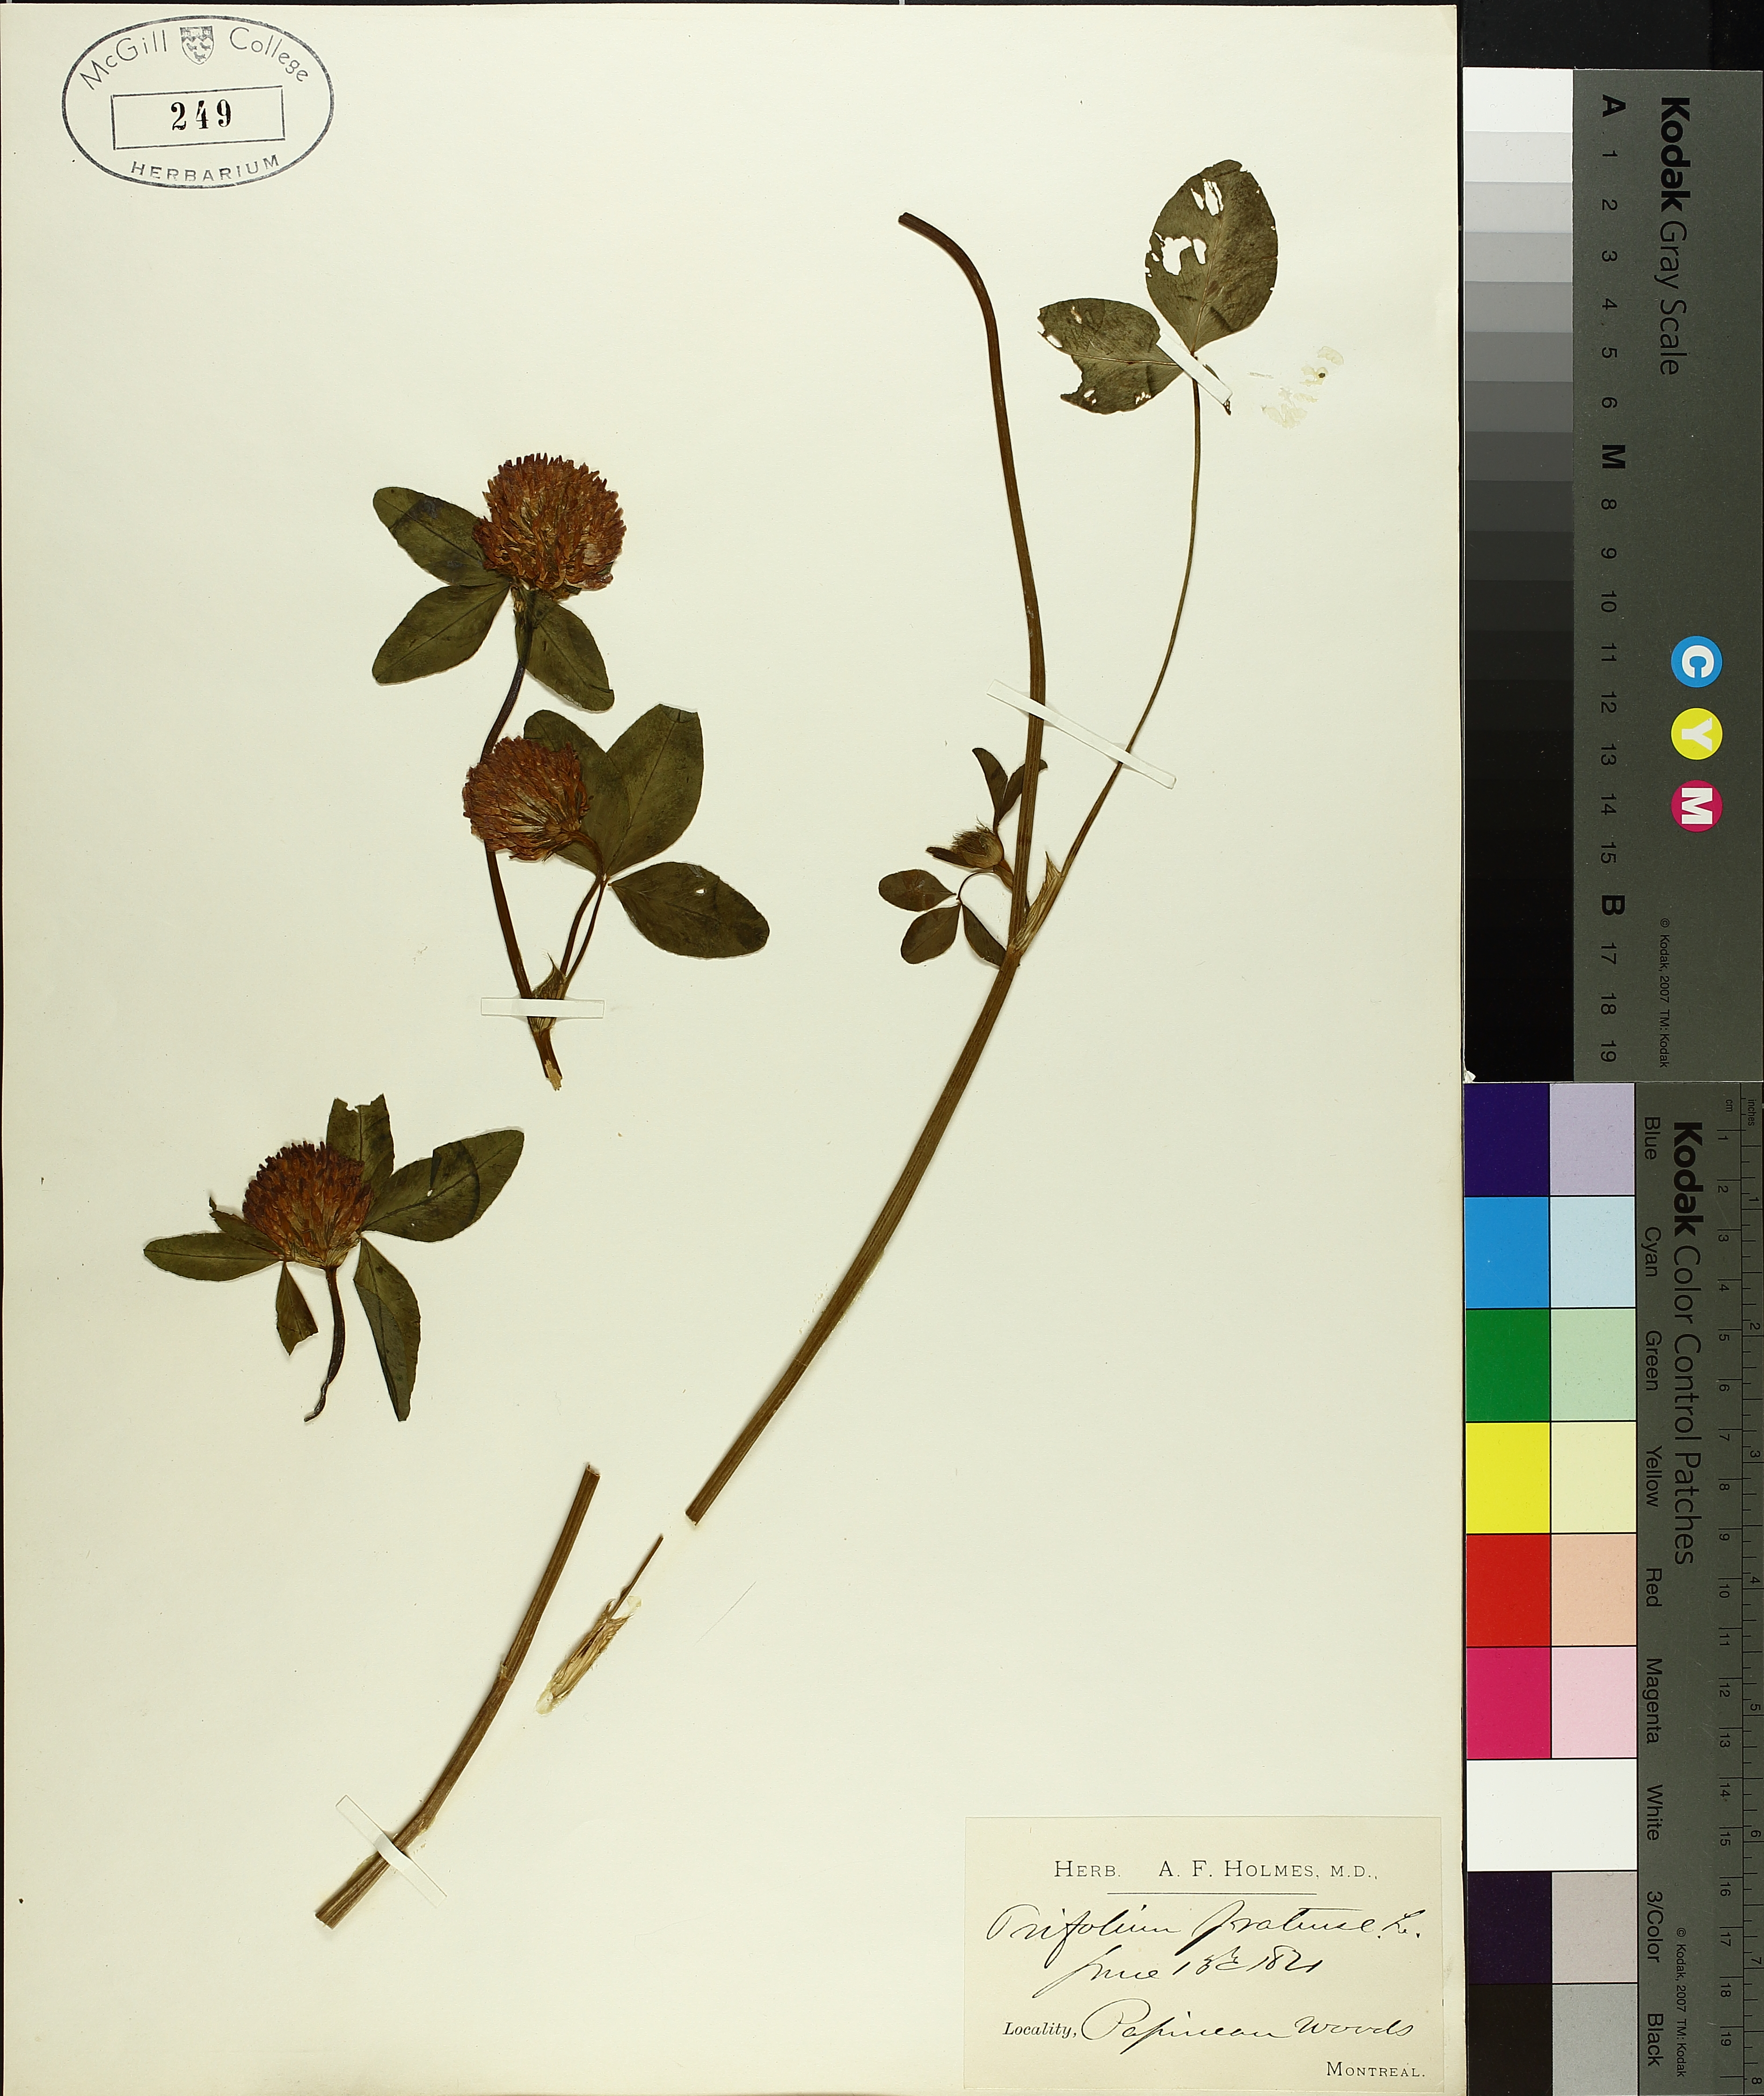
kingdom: Plantae
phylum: Tracheophyta
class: Magnoliopsida
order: Fabales
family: Fabaceae
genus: Trifolium
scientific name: Trifolium pratense
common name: Red clover
